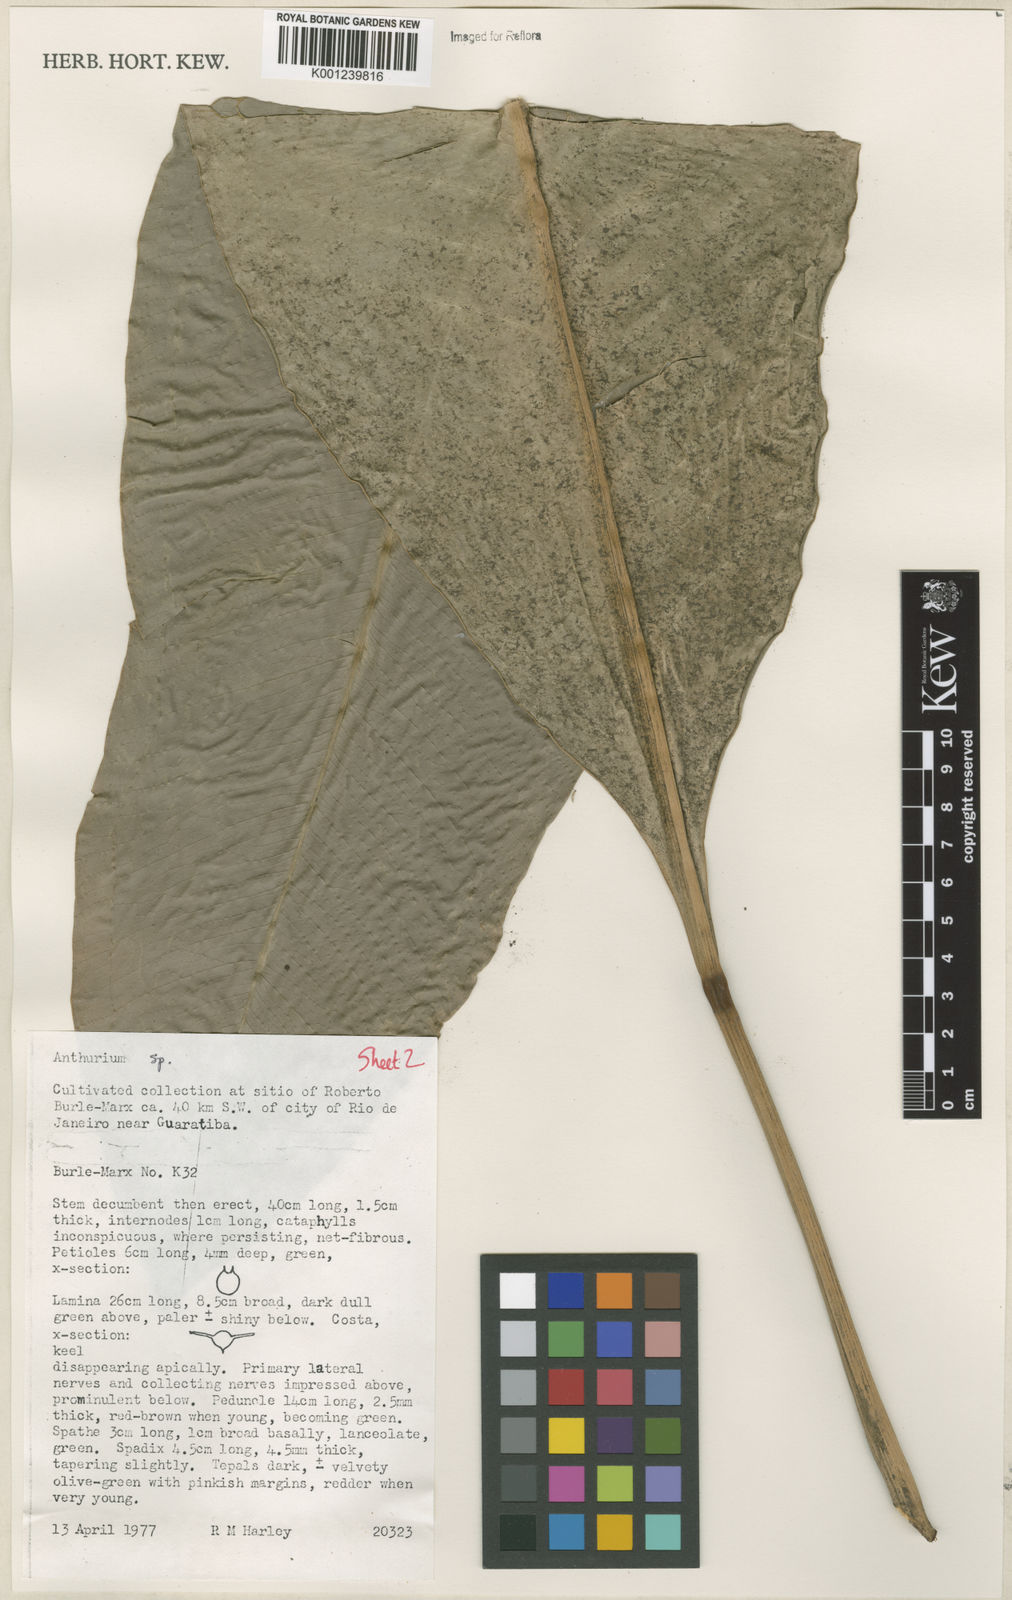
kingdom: Plantae
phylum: Tracheophyta
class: Liliopsida
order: Alismatales
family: Araceae
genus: Anthurium
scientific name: Anthurium
